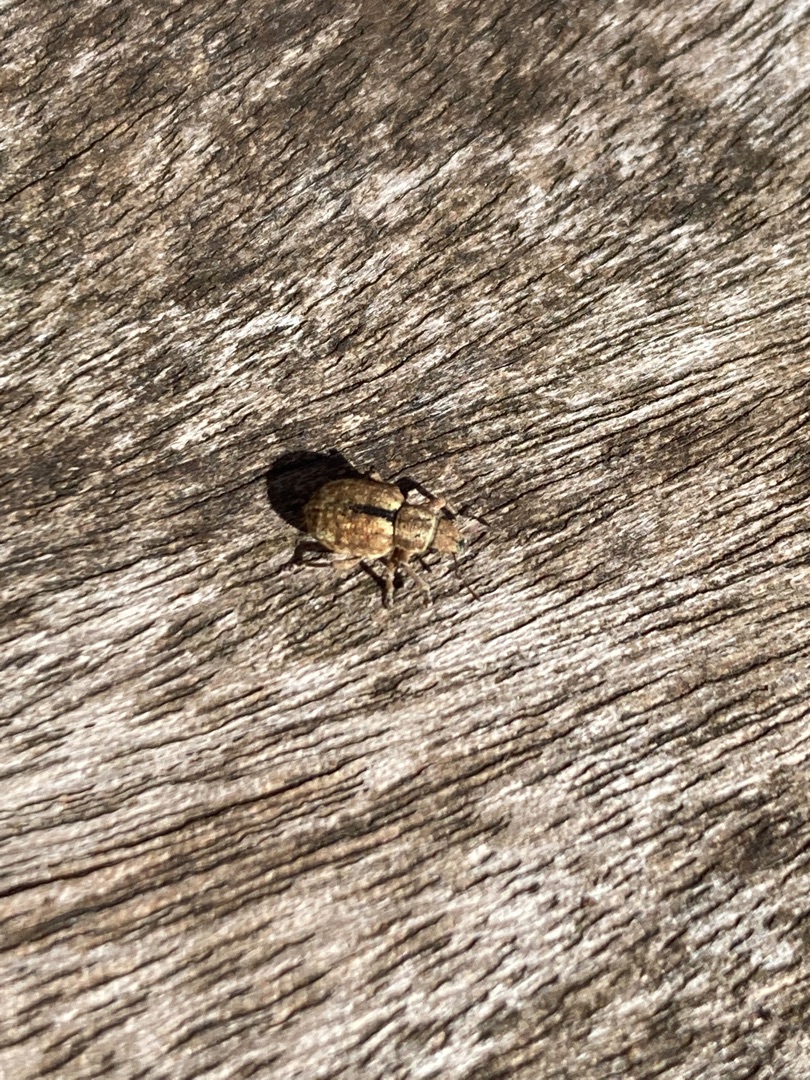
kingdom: Animalia
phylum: Arthropoda
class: Insecta
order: Coleoptera
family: Curculionidae
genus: Strophosoma
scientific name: Strophosoma melanogrammum
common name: Stribet gråsnude
